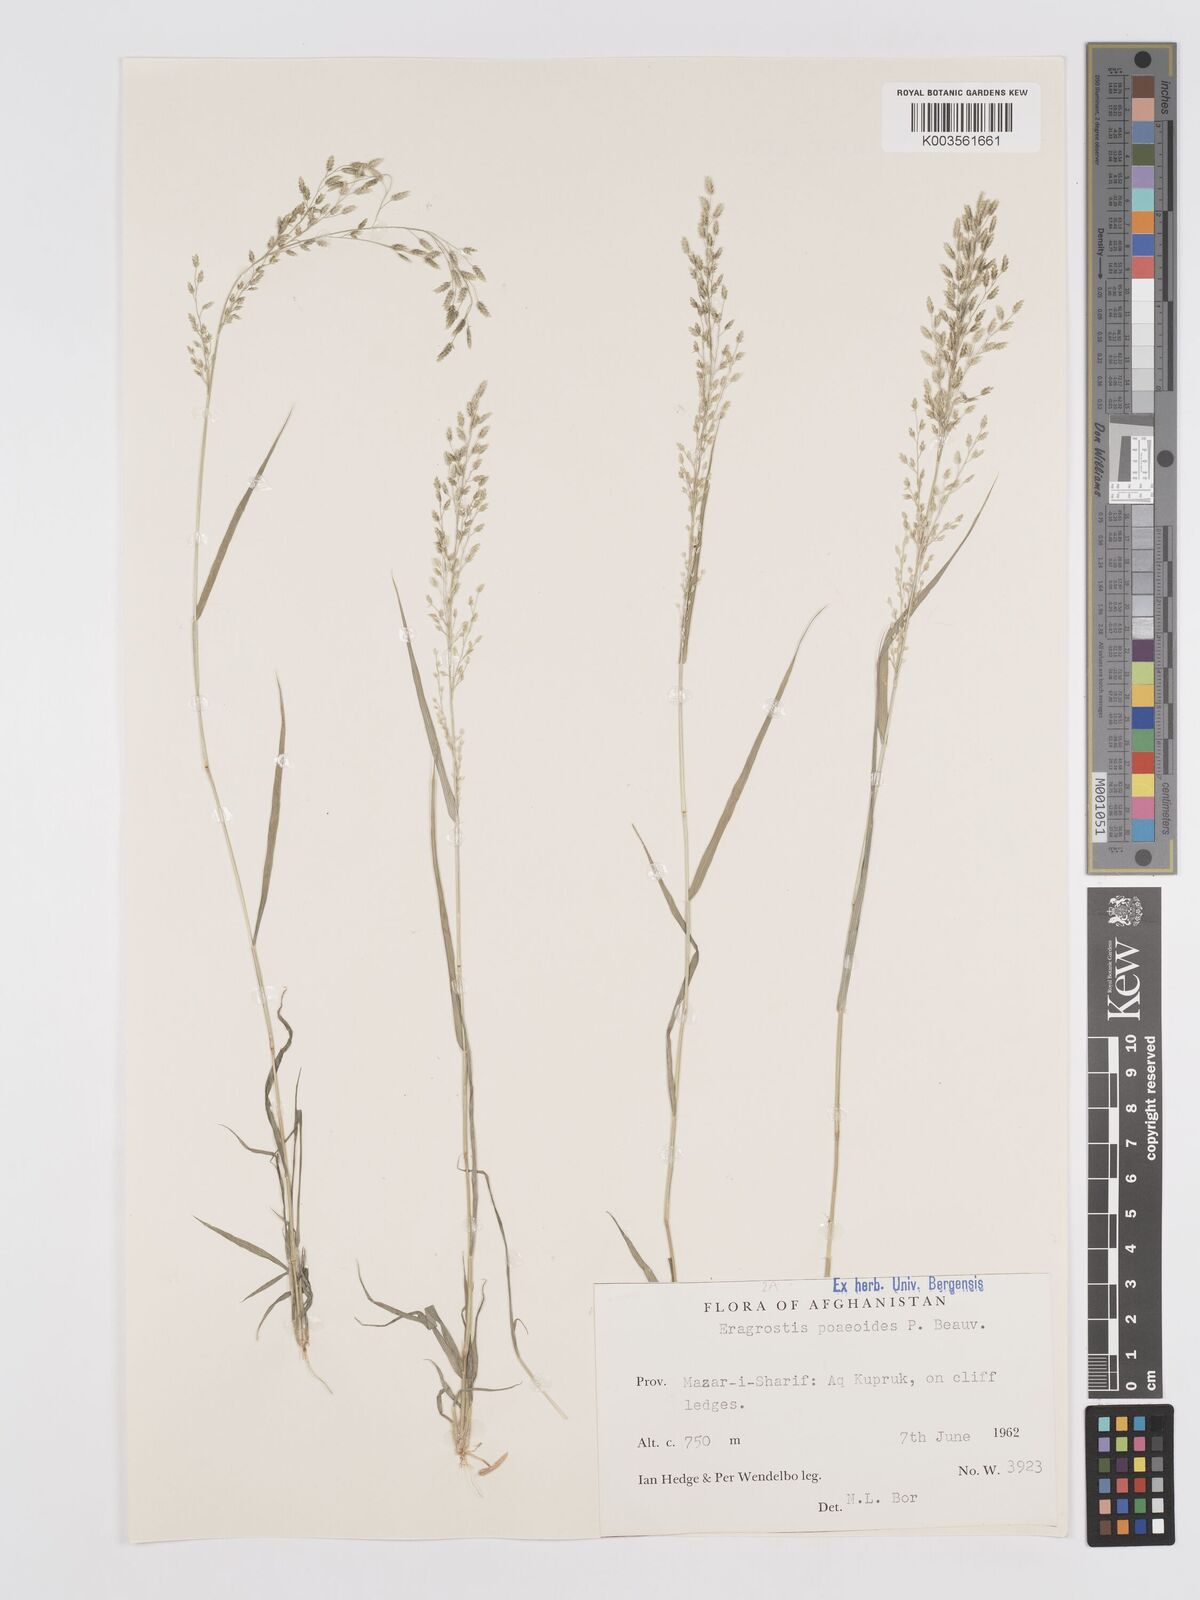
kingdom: Plantae
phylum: Tracheophyta
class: Liliopsida
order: Poales
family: Poaceae
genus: Eragrostis
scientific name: Eragrostis minor
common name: Small love-grass
